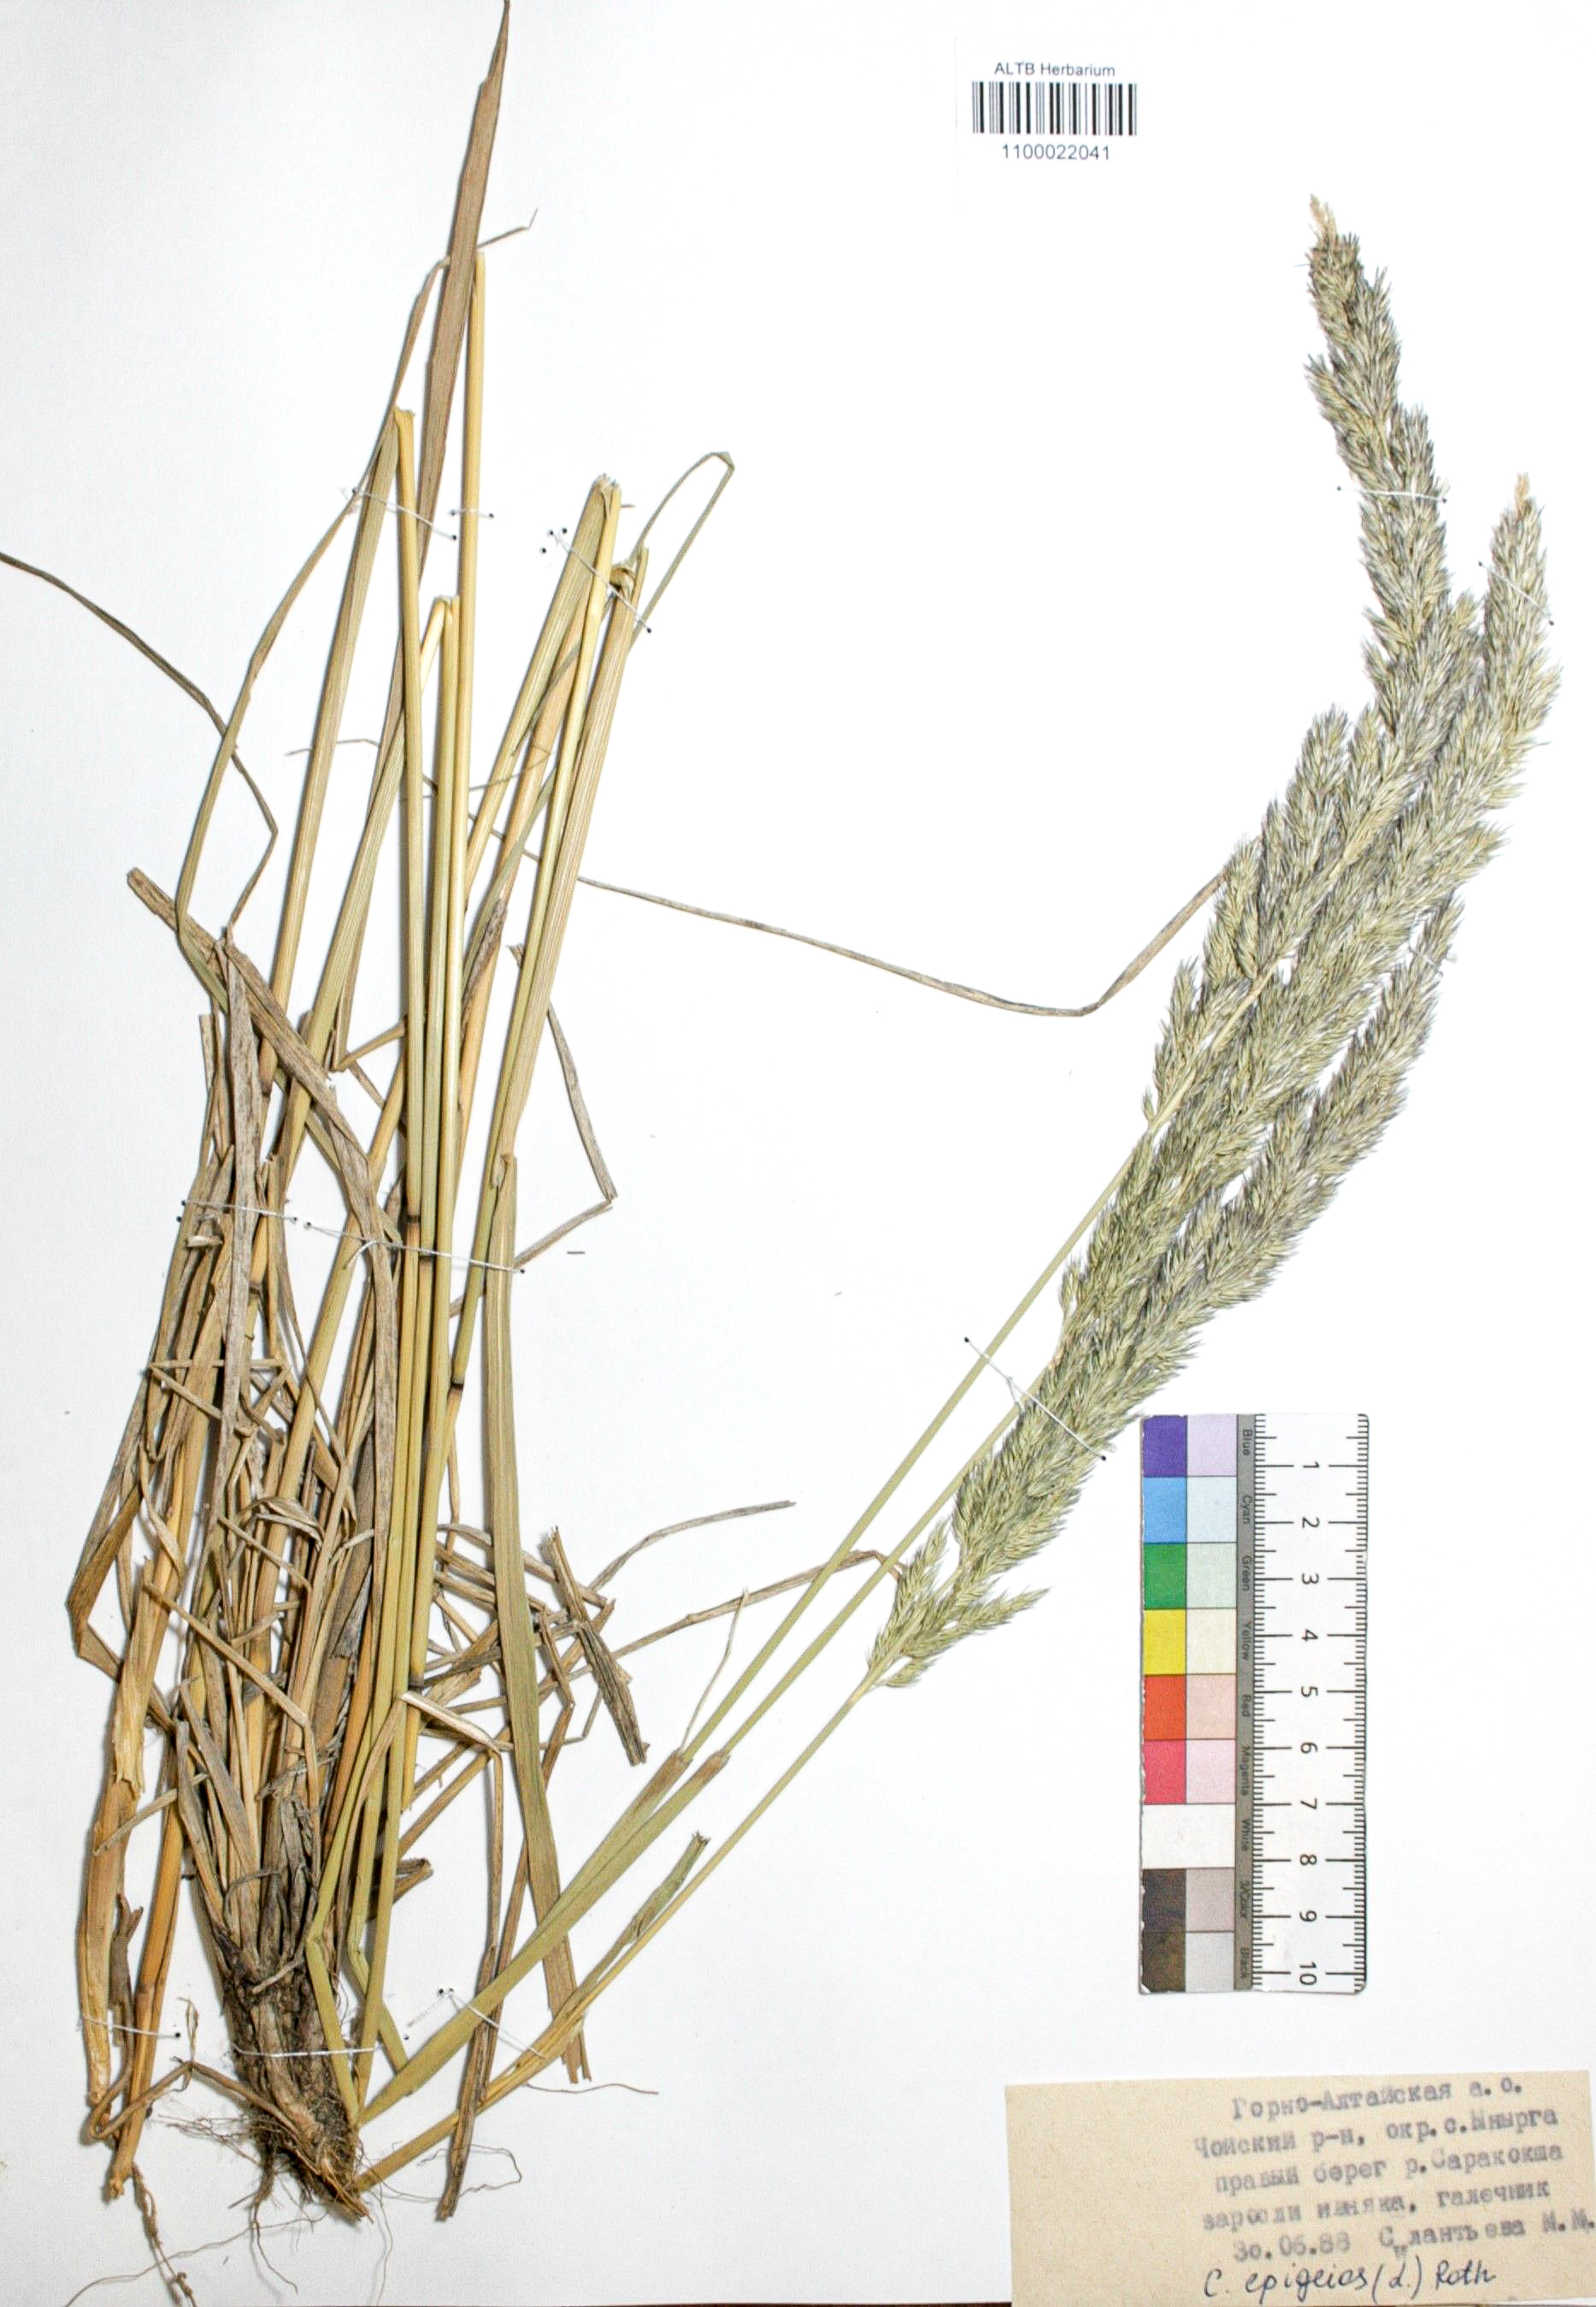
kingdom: Plantae
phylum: Tracheophyta
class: Liliopsida
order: Poales
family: Poaceae
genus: Calamagrostis
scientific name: Calamagrostis epigejos
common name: Wood small-reed
